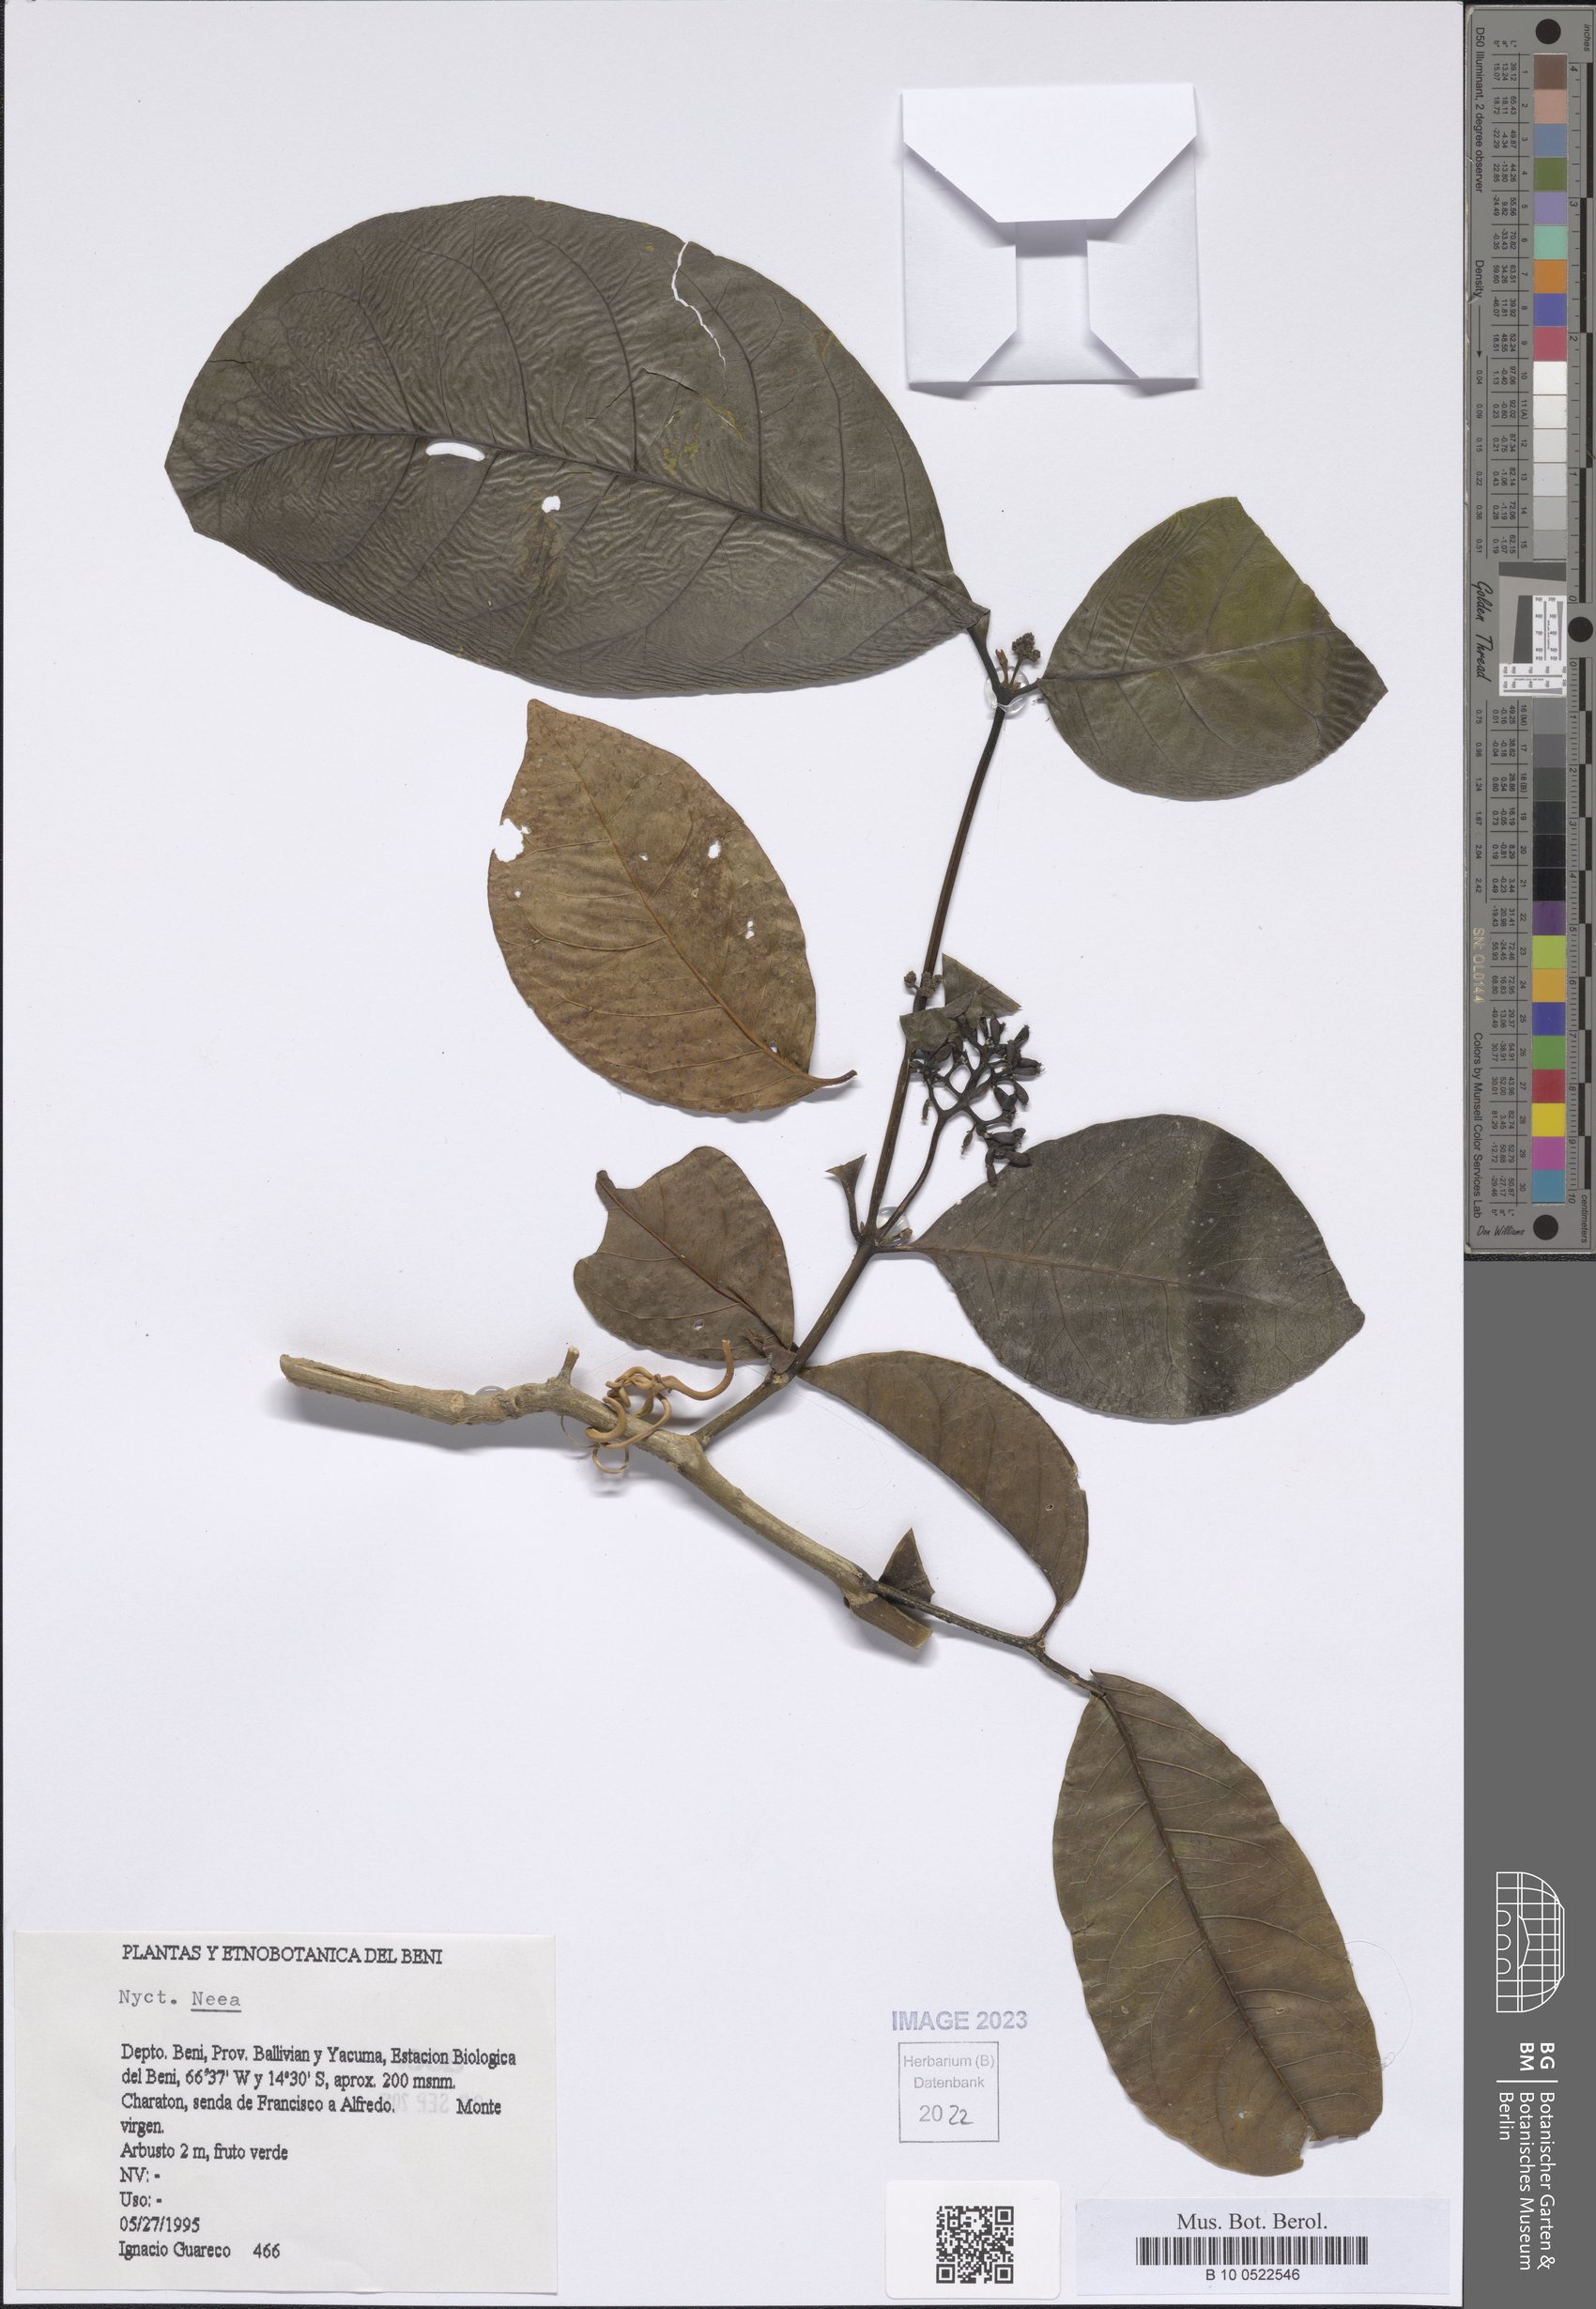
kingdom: Plantae
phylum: Tracheophyta
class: Magnoliopsida
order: Caryophyllales
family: Nyctaginaceae
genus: Neea
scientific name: Neea
